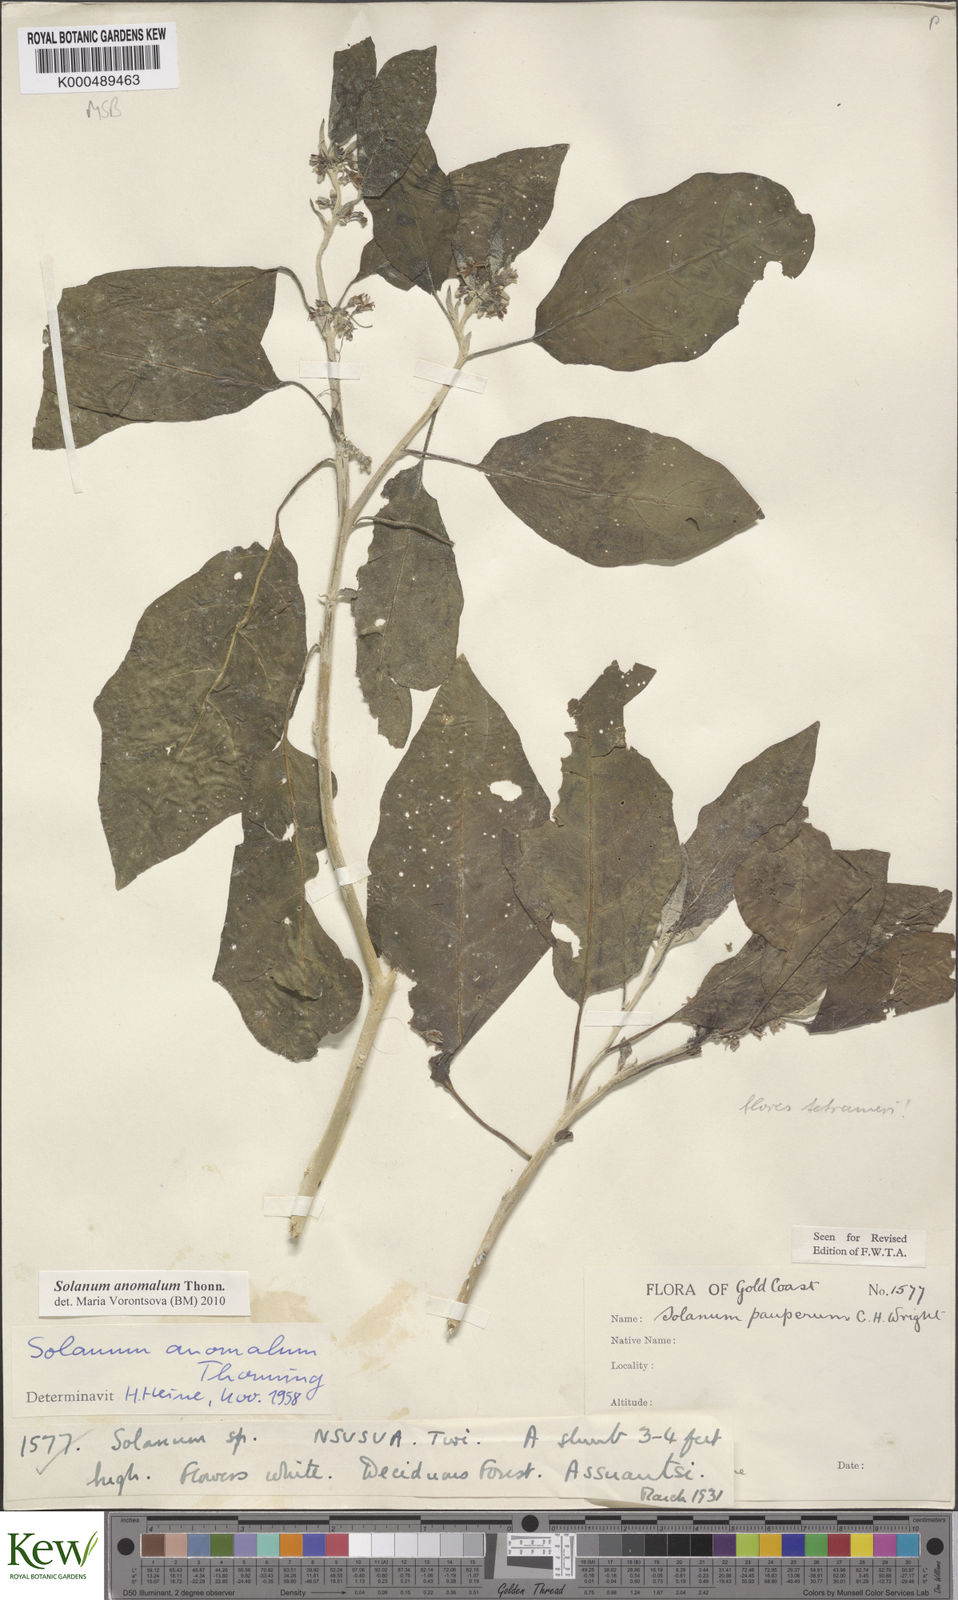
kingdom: Plantae
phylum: Tracheophyta
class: Magnoliopsida
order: Solanales
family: Solanaceae
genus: Solanum
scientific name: Solanum anomalum
